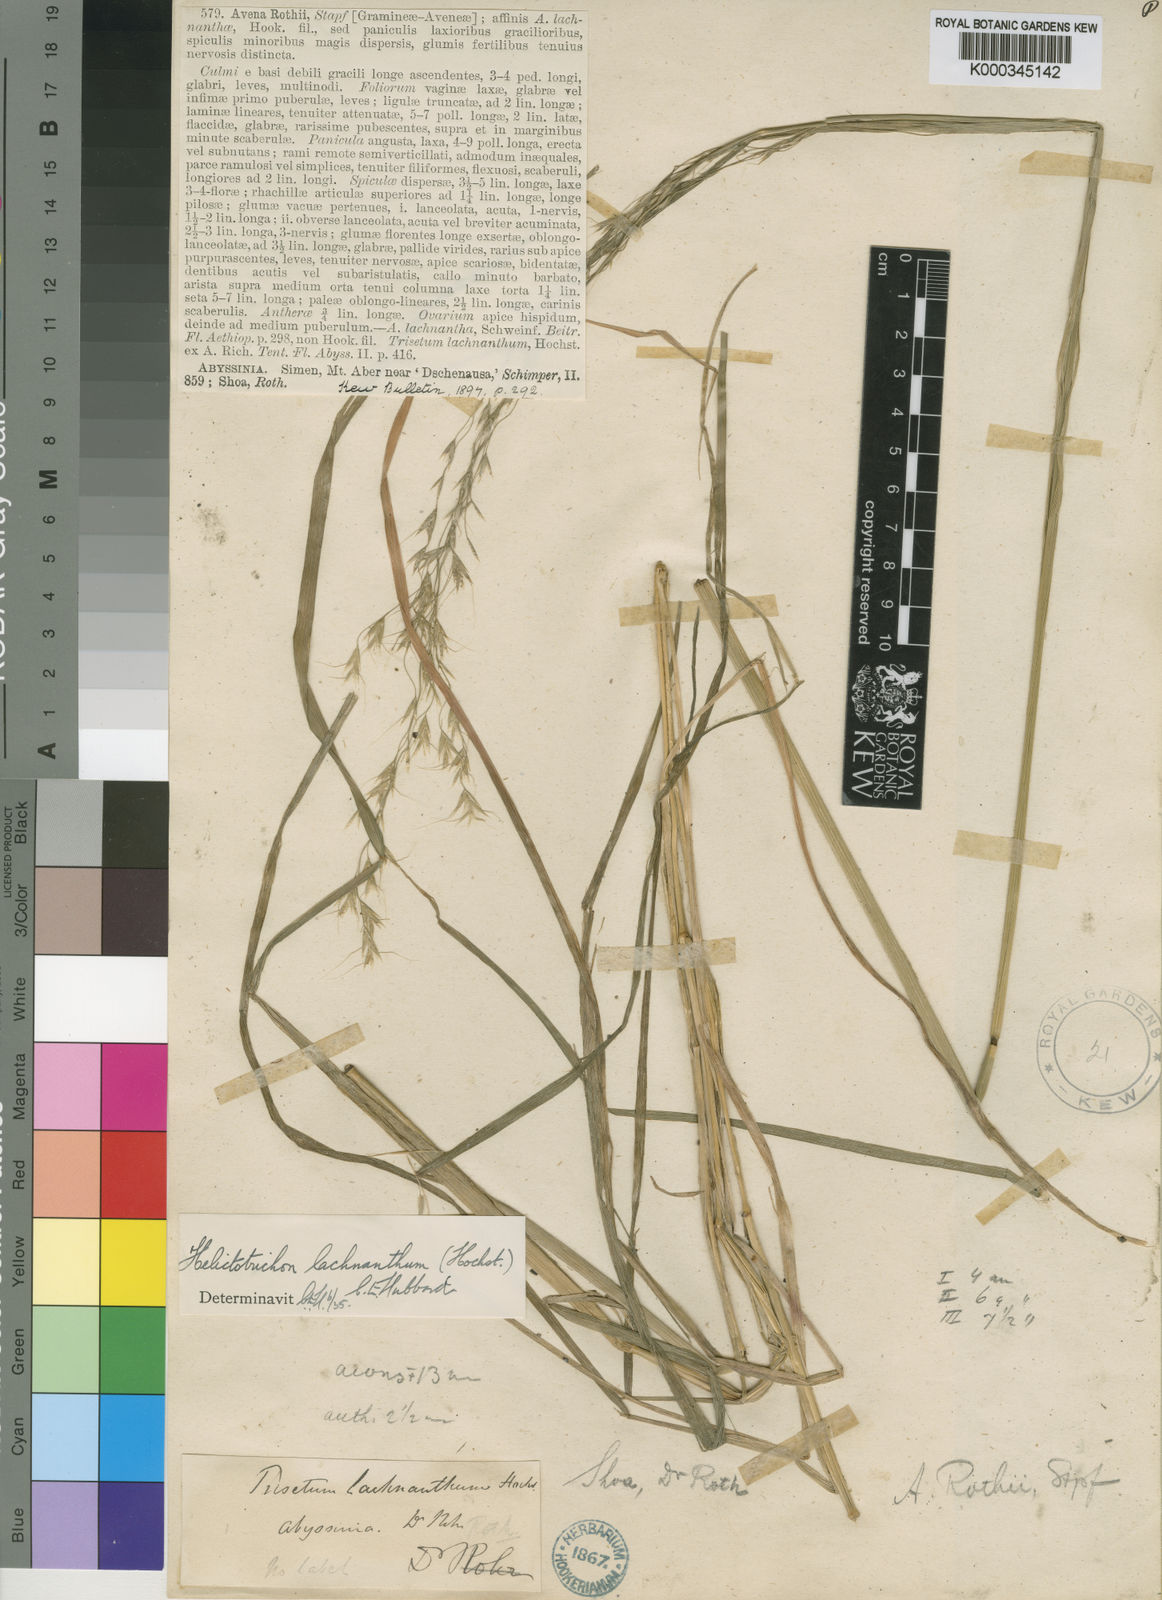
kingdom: Plantae
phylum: Tracheophyta
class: Liliopsida
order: Poales
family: Poaceae
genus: Trisetopsis
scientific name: Trisetopsis lachnantha
